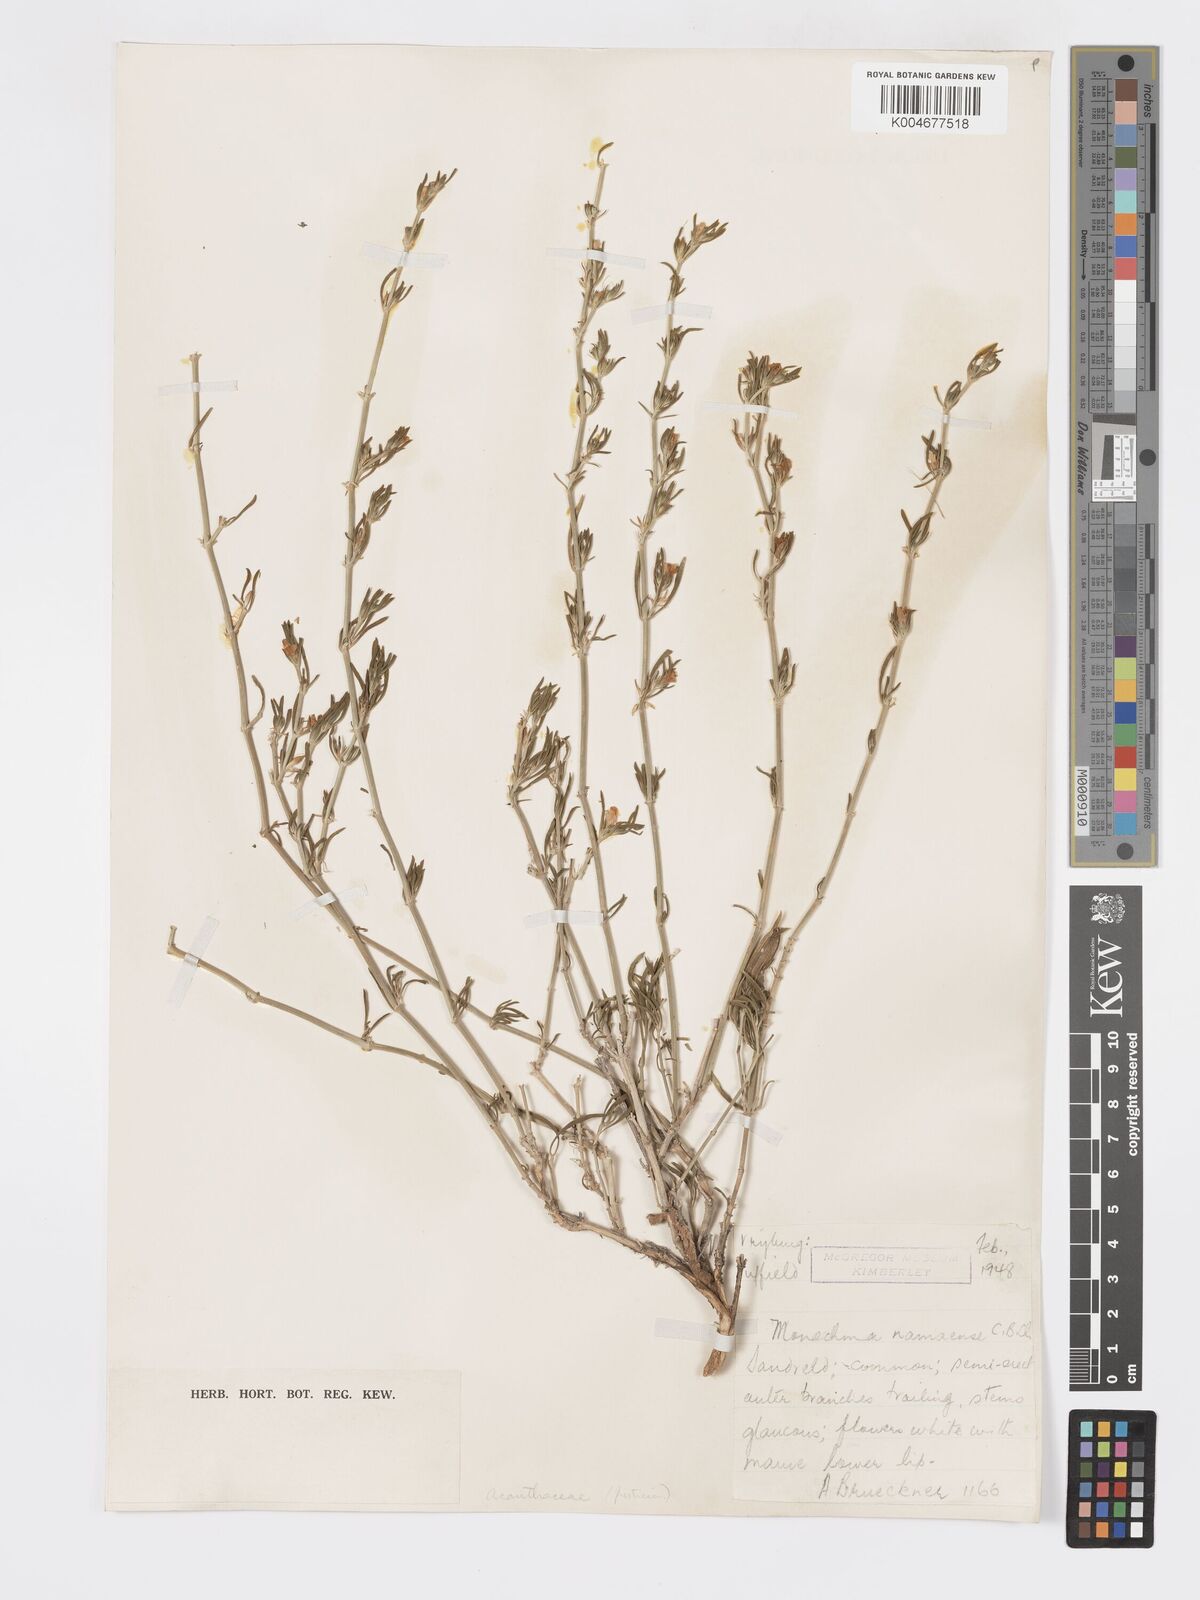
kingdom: Plantae
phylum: Tracheophyta
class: Magnoliopsida
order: Lamiales
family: Acanthaceae
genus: Pogonospermum
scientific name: Pogonospermum
